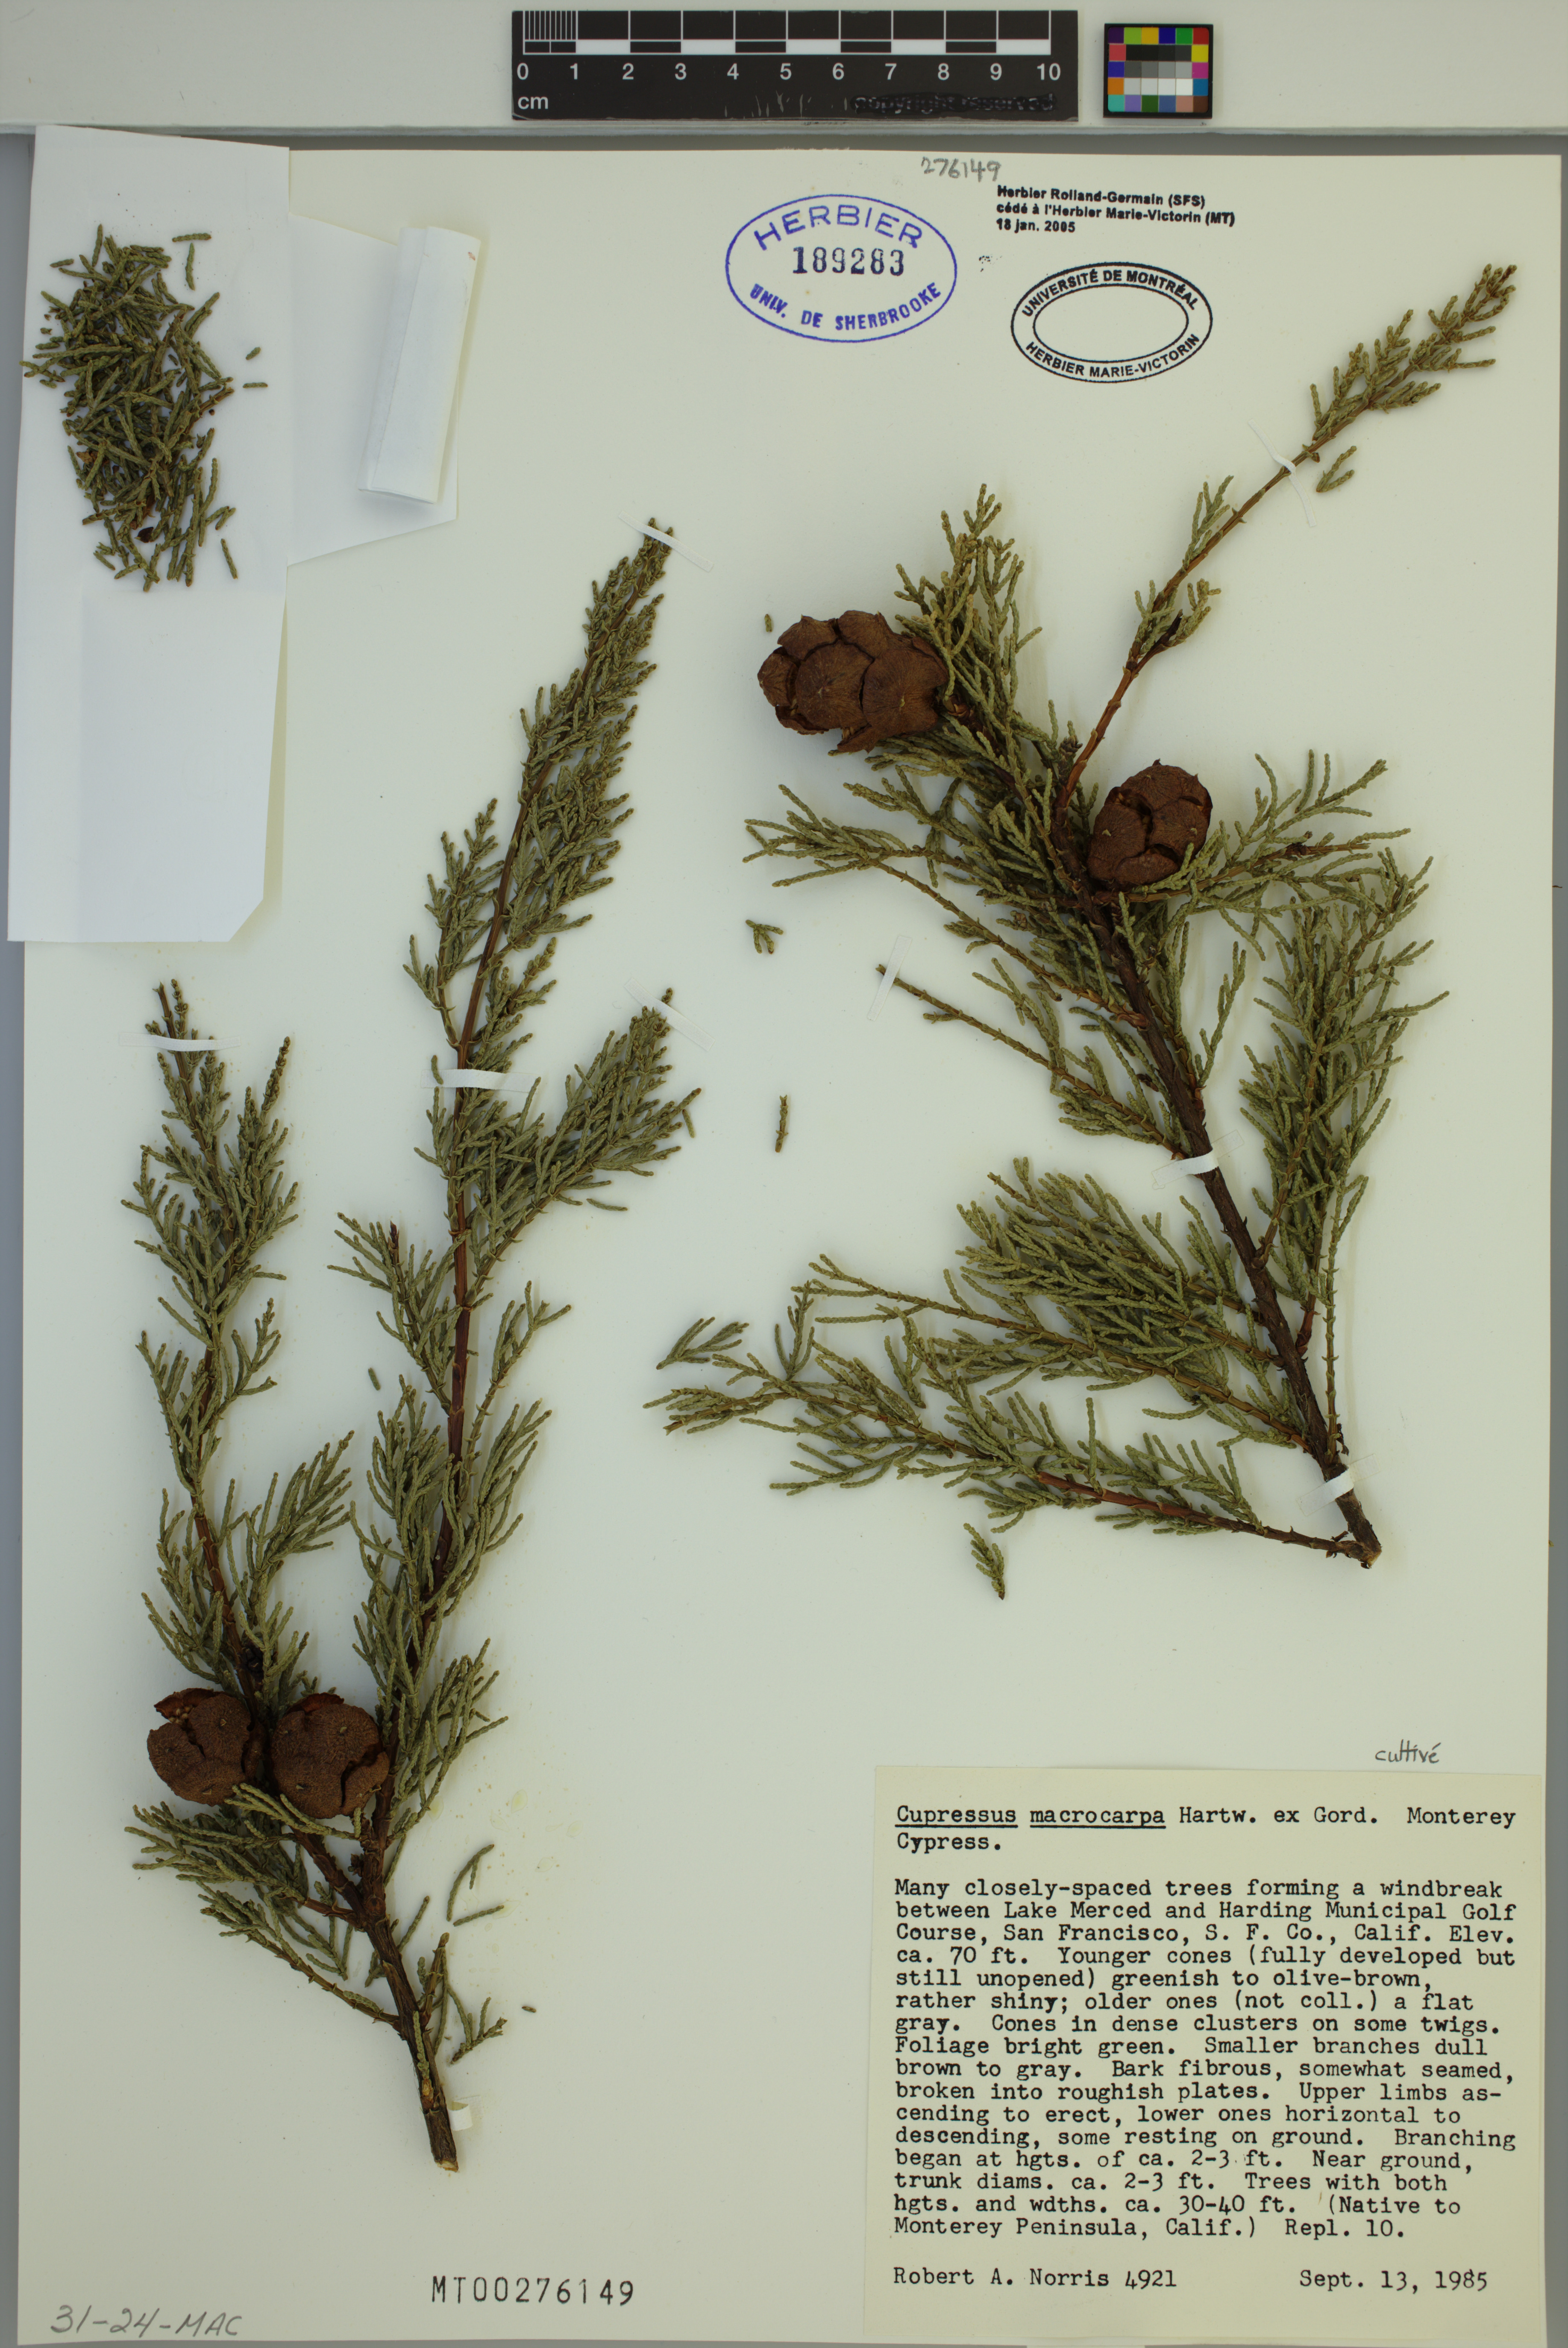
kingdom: Plantae
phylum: Tracheophyta
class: Pinopsida
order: Pinales
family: Cupressaceae
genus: Cupressus
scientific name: Cupressus macrocarpa
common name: Monterey cypress
